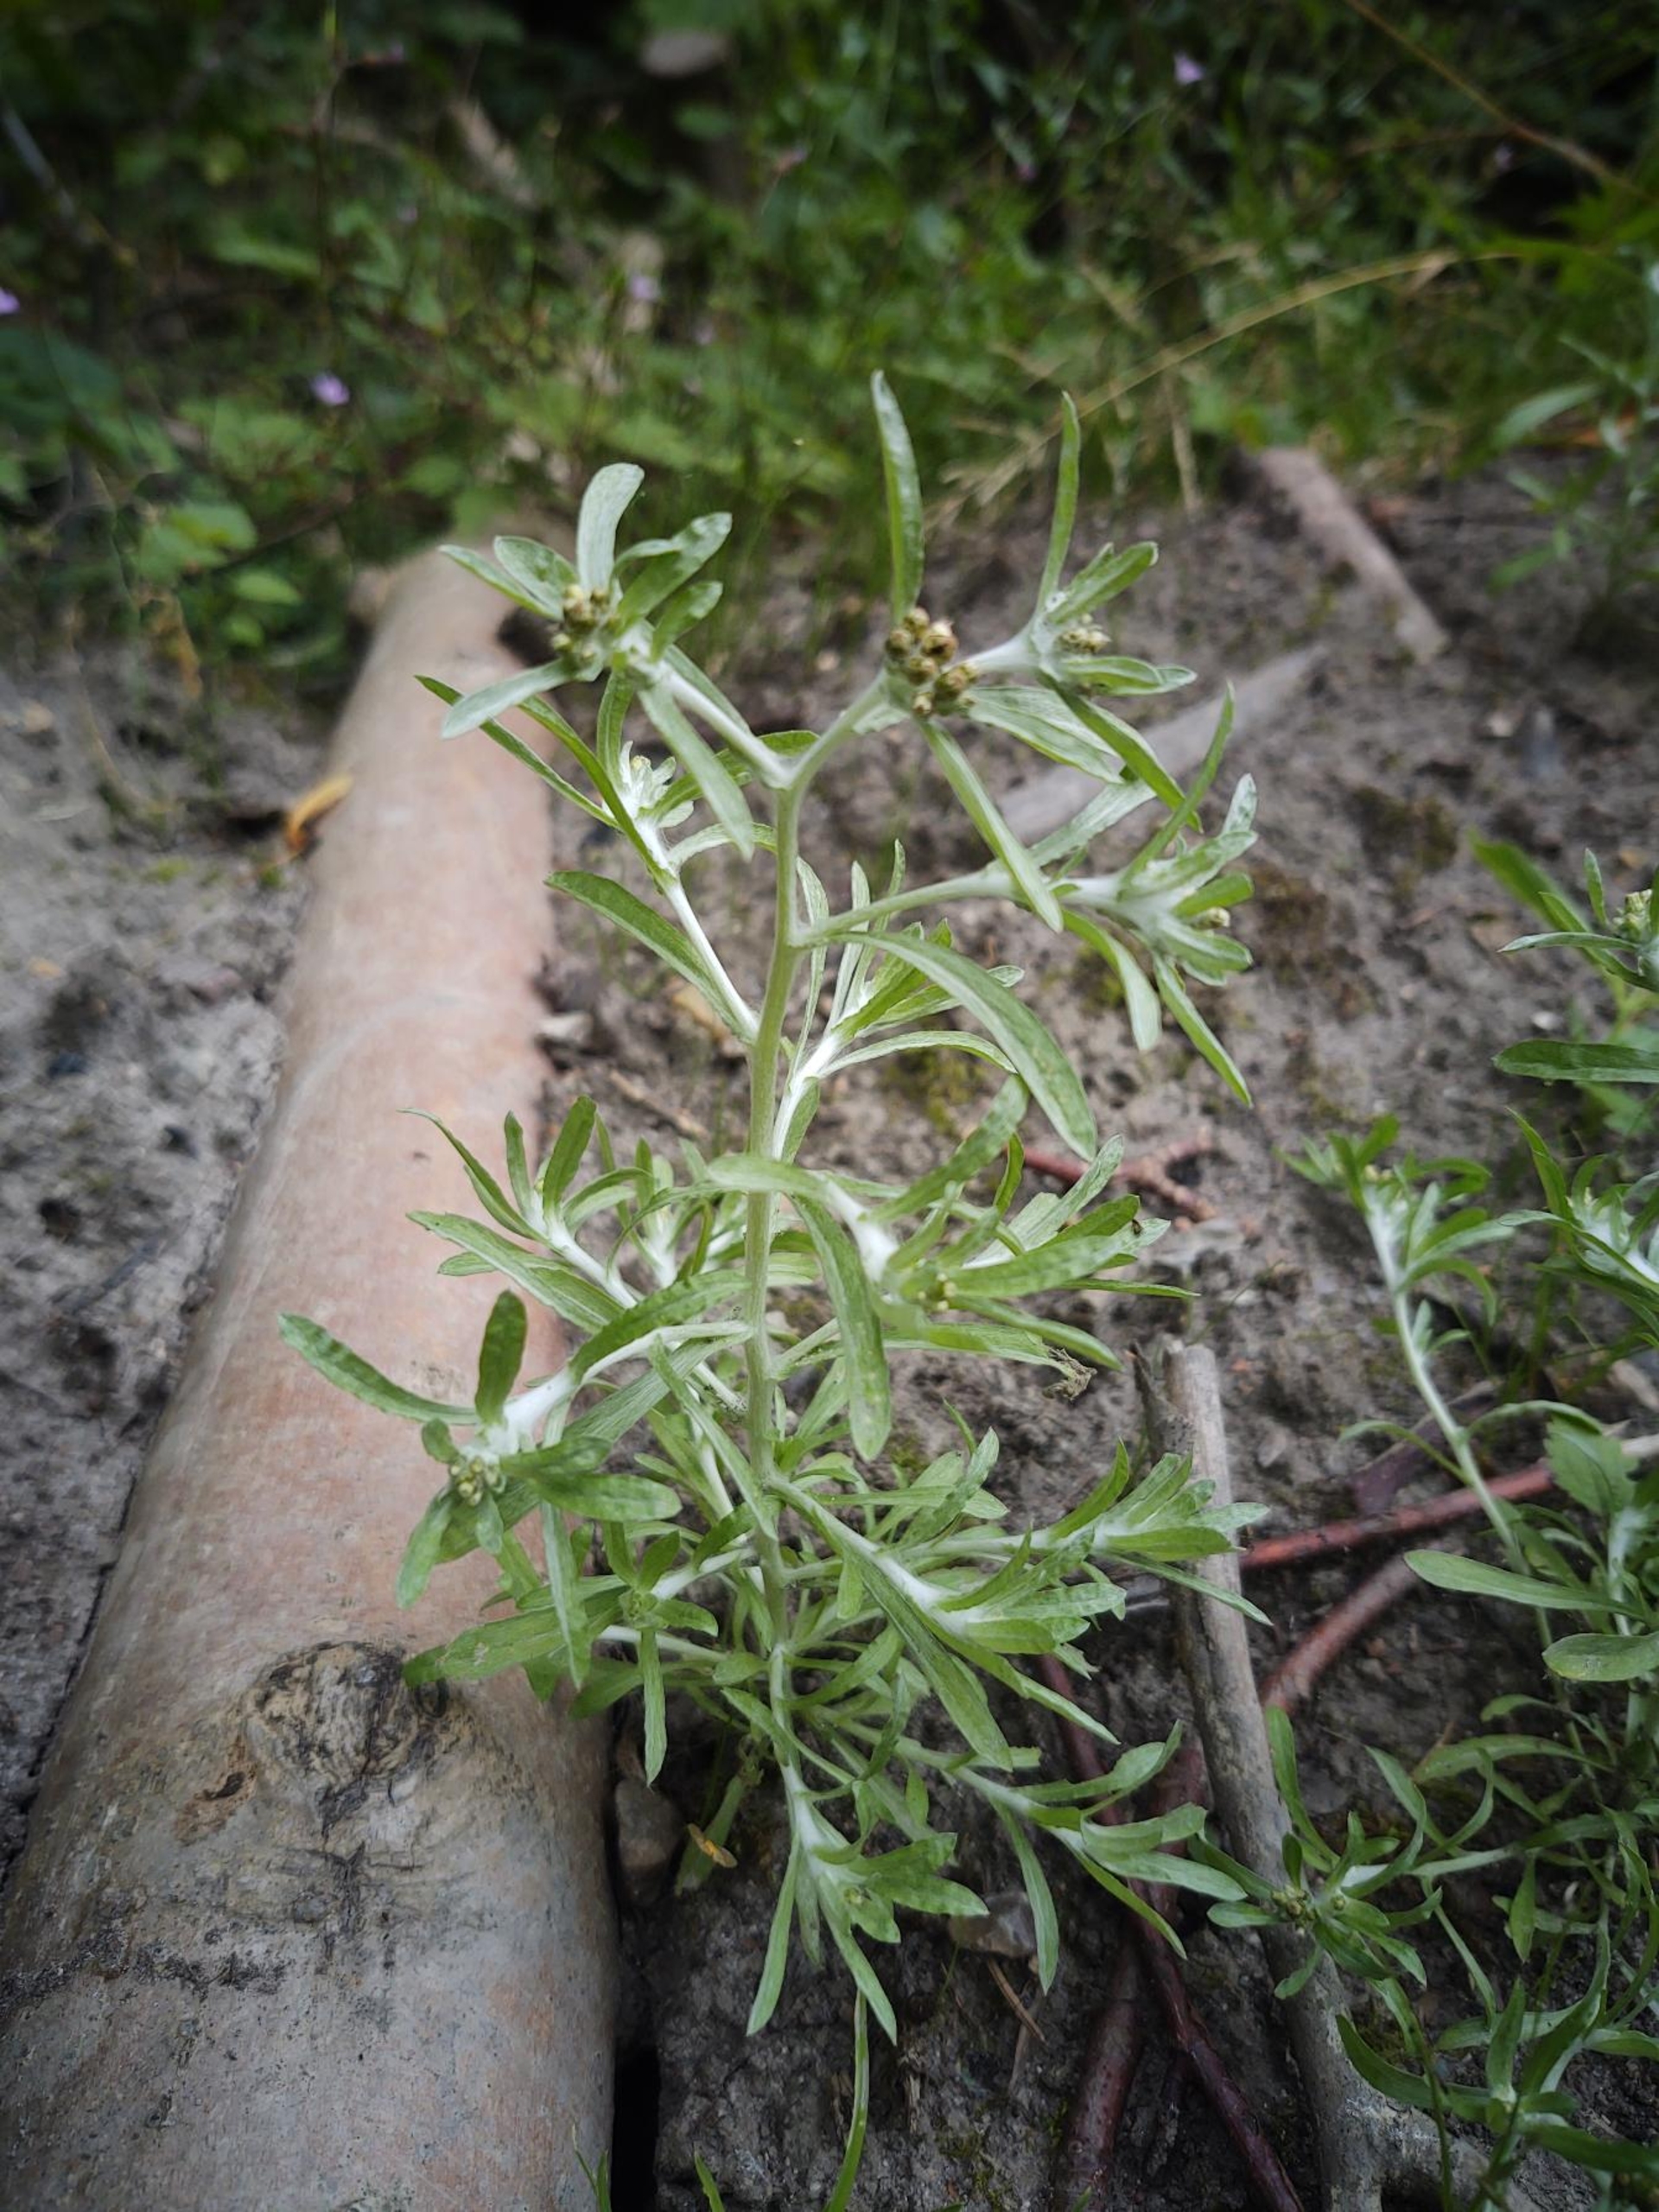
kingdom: Plantae
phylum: Tracheophyta
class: Magnoliopsida
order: Asterales
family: Asteraceae
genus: Gnaphalium
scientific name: Gnaphalium uliginosum
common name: Sump-evighedsblomst
